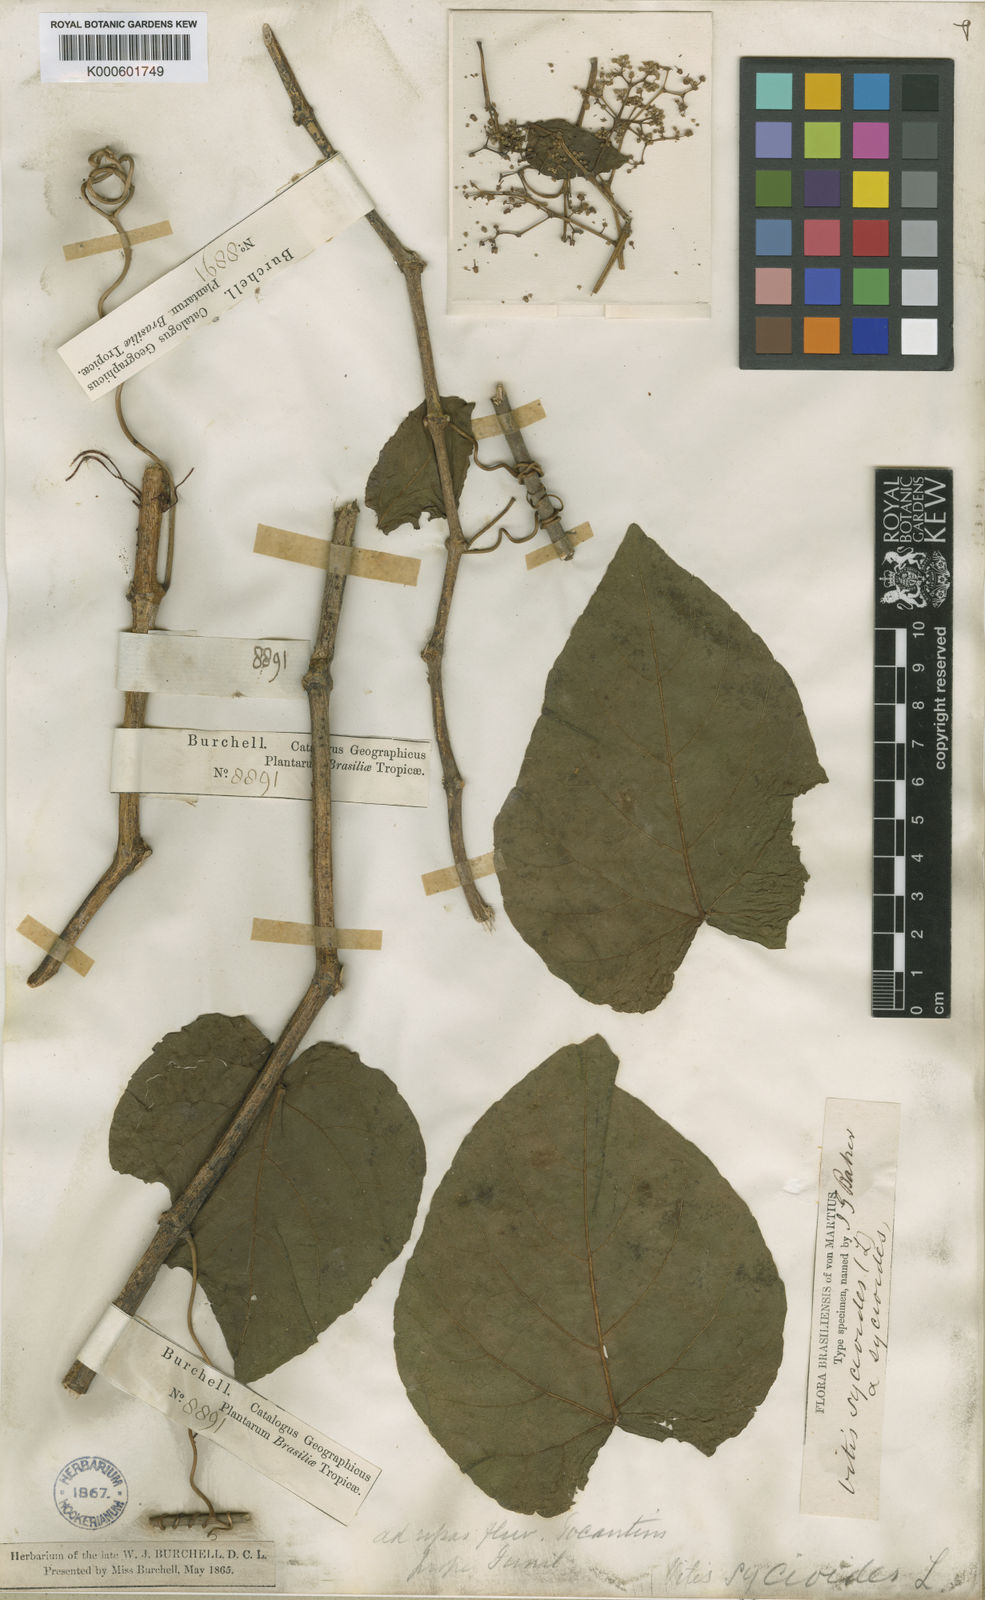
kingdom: Plantae
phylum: Tracheophyta
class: Magnoliopsida
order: Vitales
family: Vitaceae
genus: Cissus
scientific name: Cissus verticillata
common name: Princess vine
